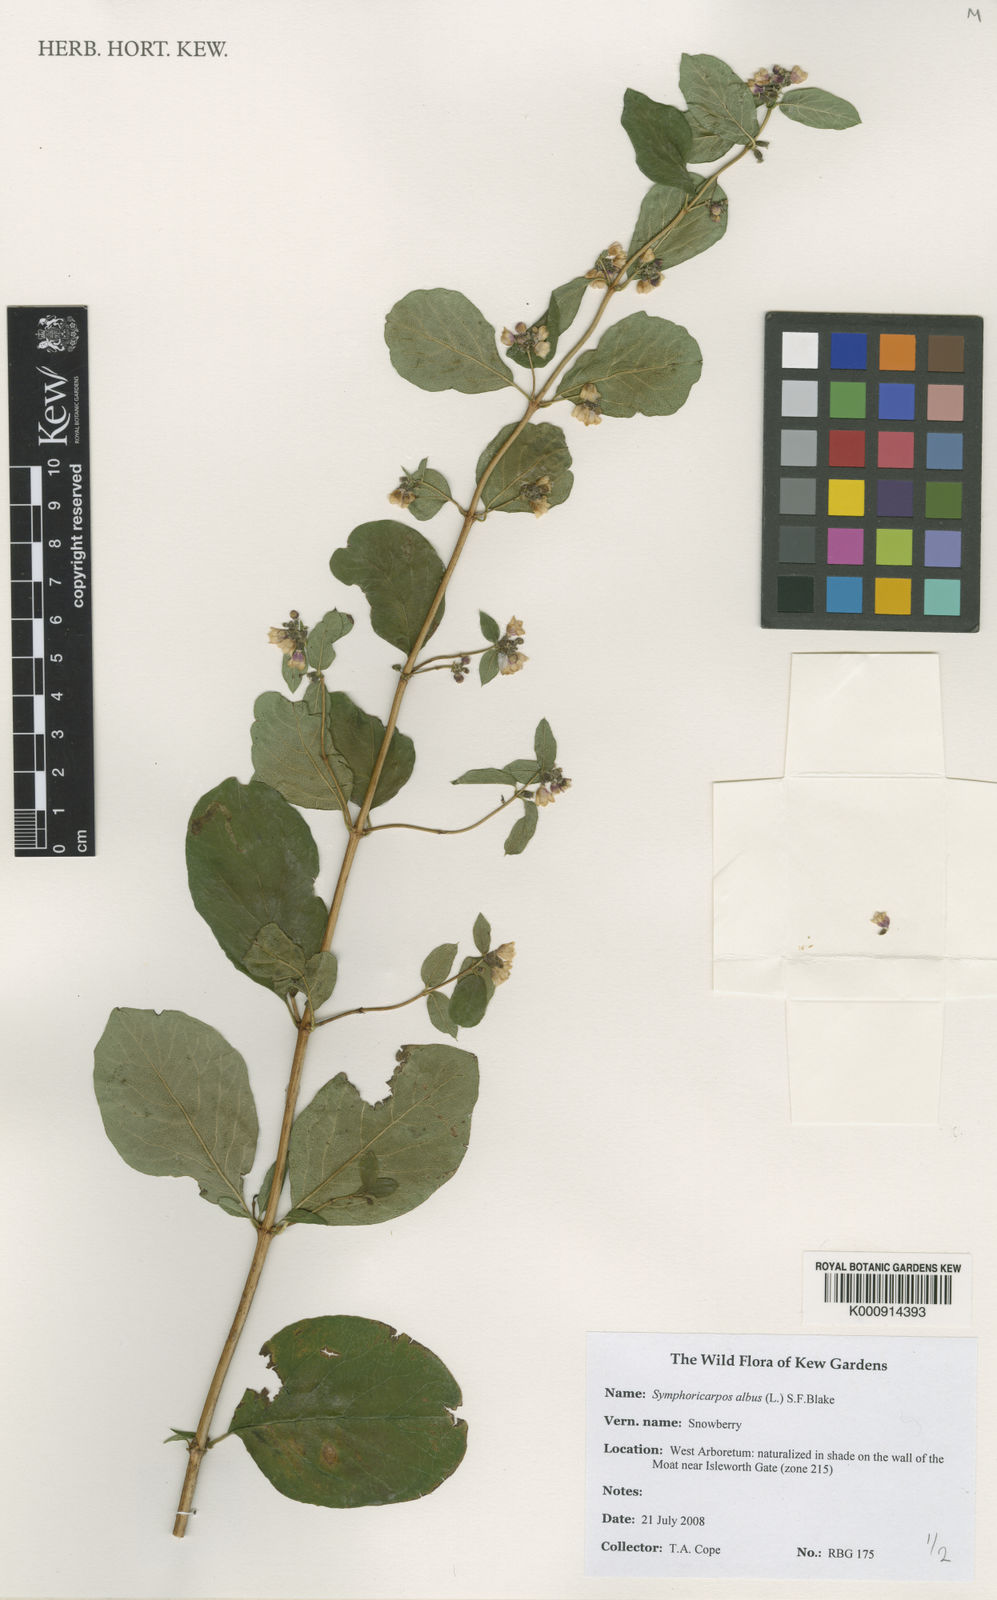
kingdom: Plantae
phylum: Tracheophyta
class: Magnoliopsida
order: Dipsacales
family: Caprifoliaceae
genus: Symphoricarpos
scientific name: Symphoricarpos albus
